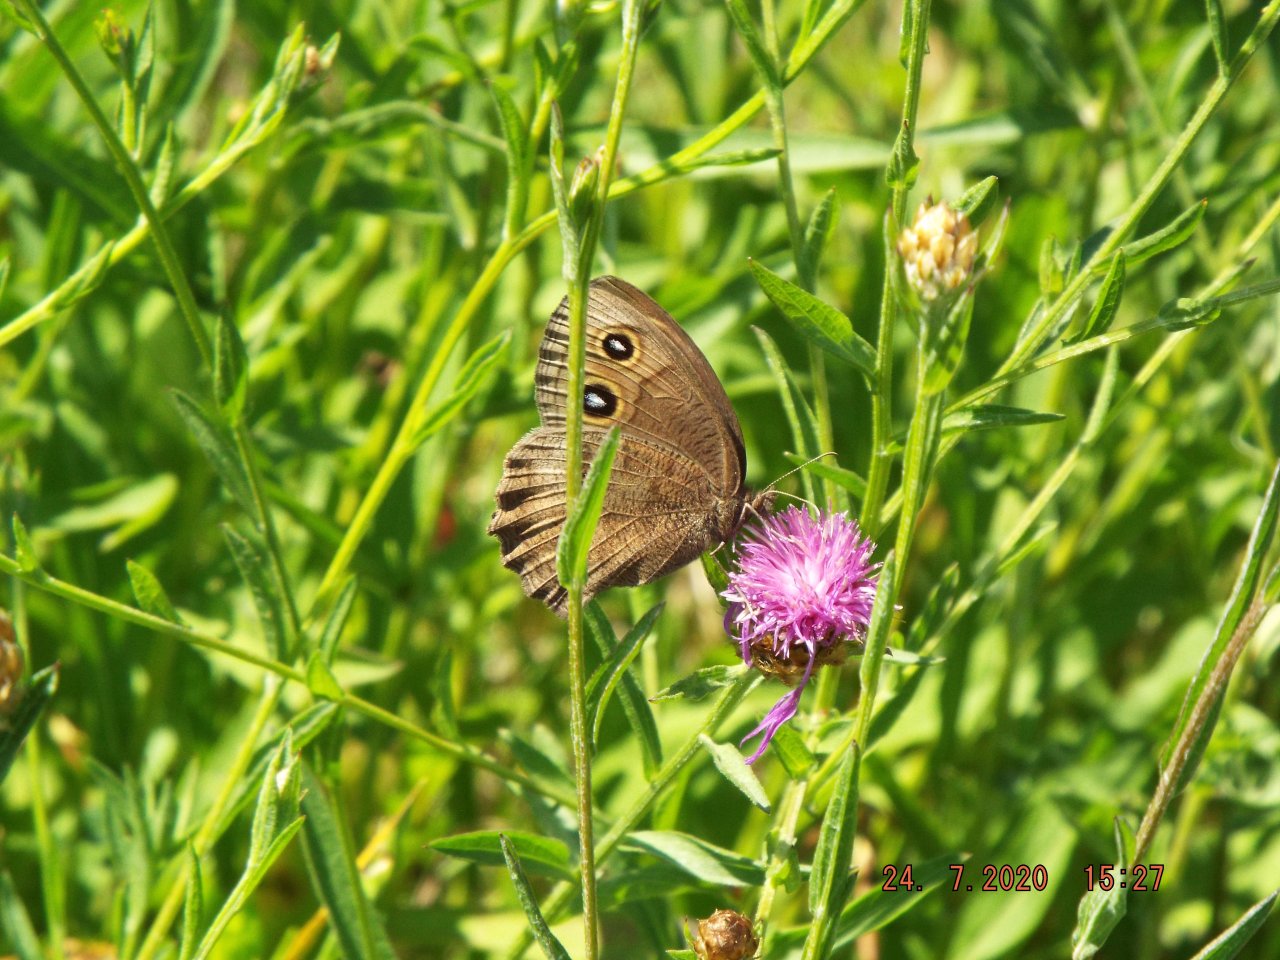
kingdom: Animalia
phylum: Arthropoda
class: Insecta
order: Lepidoptera
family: Nymphalidae
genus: Cercyonis
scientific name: Cercyonis pegala
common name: Common Wood-Nymph
